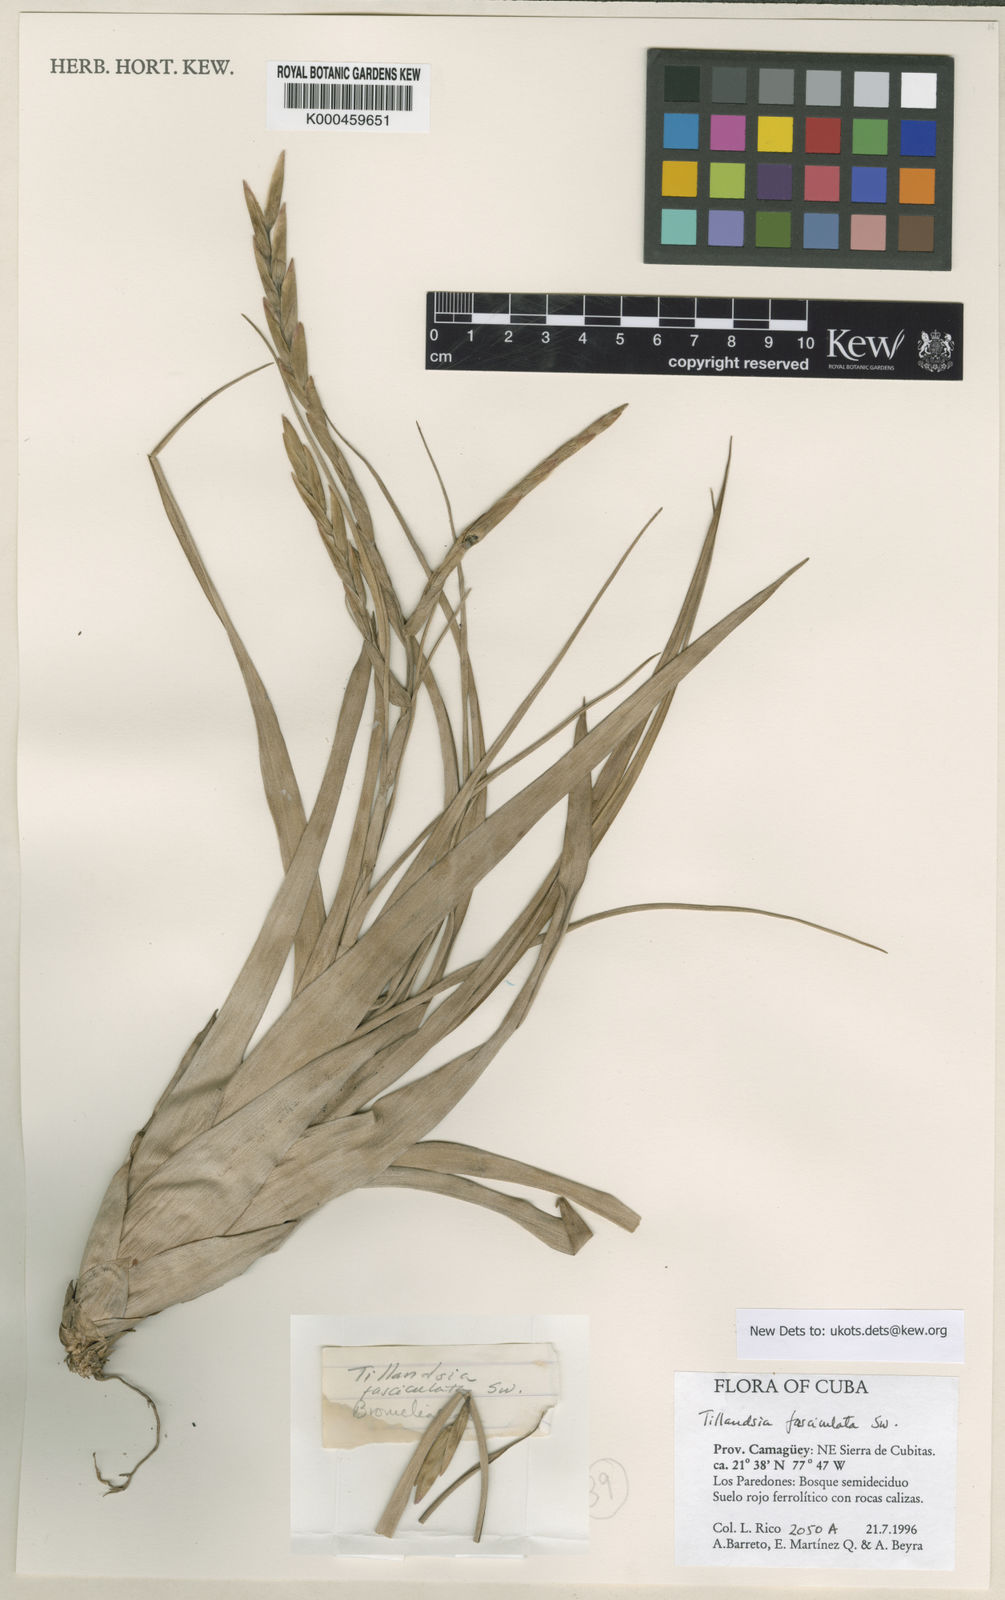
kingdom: Plantae
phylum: Tracheophyta
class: Liliopsida
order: Poales
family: Bromeliaceae
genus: Tillandsia
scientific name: Tillandsia
